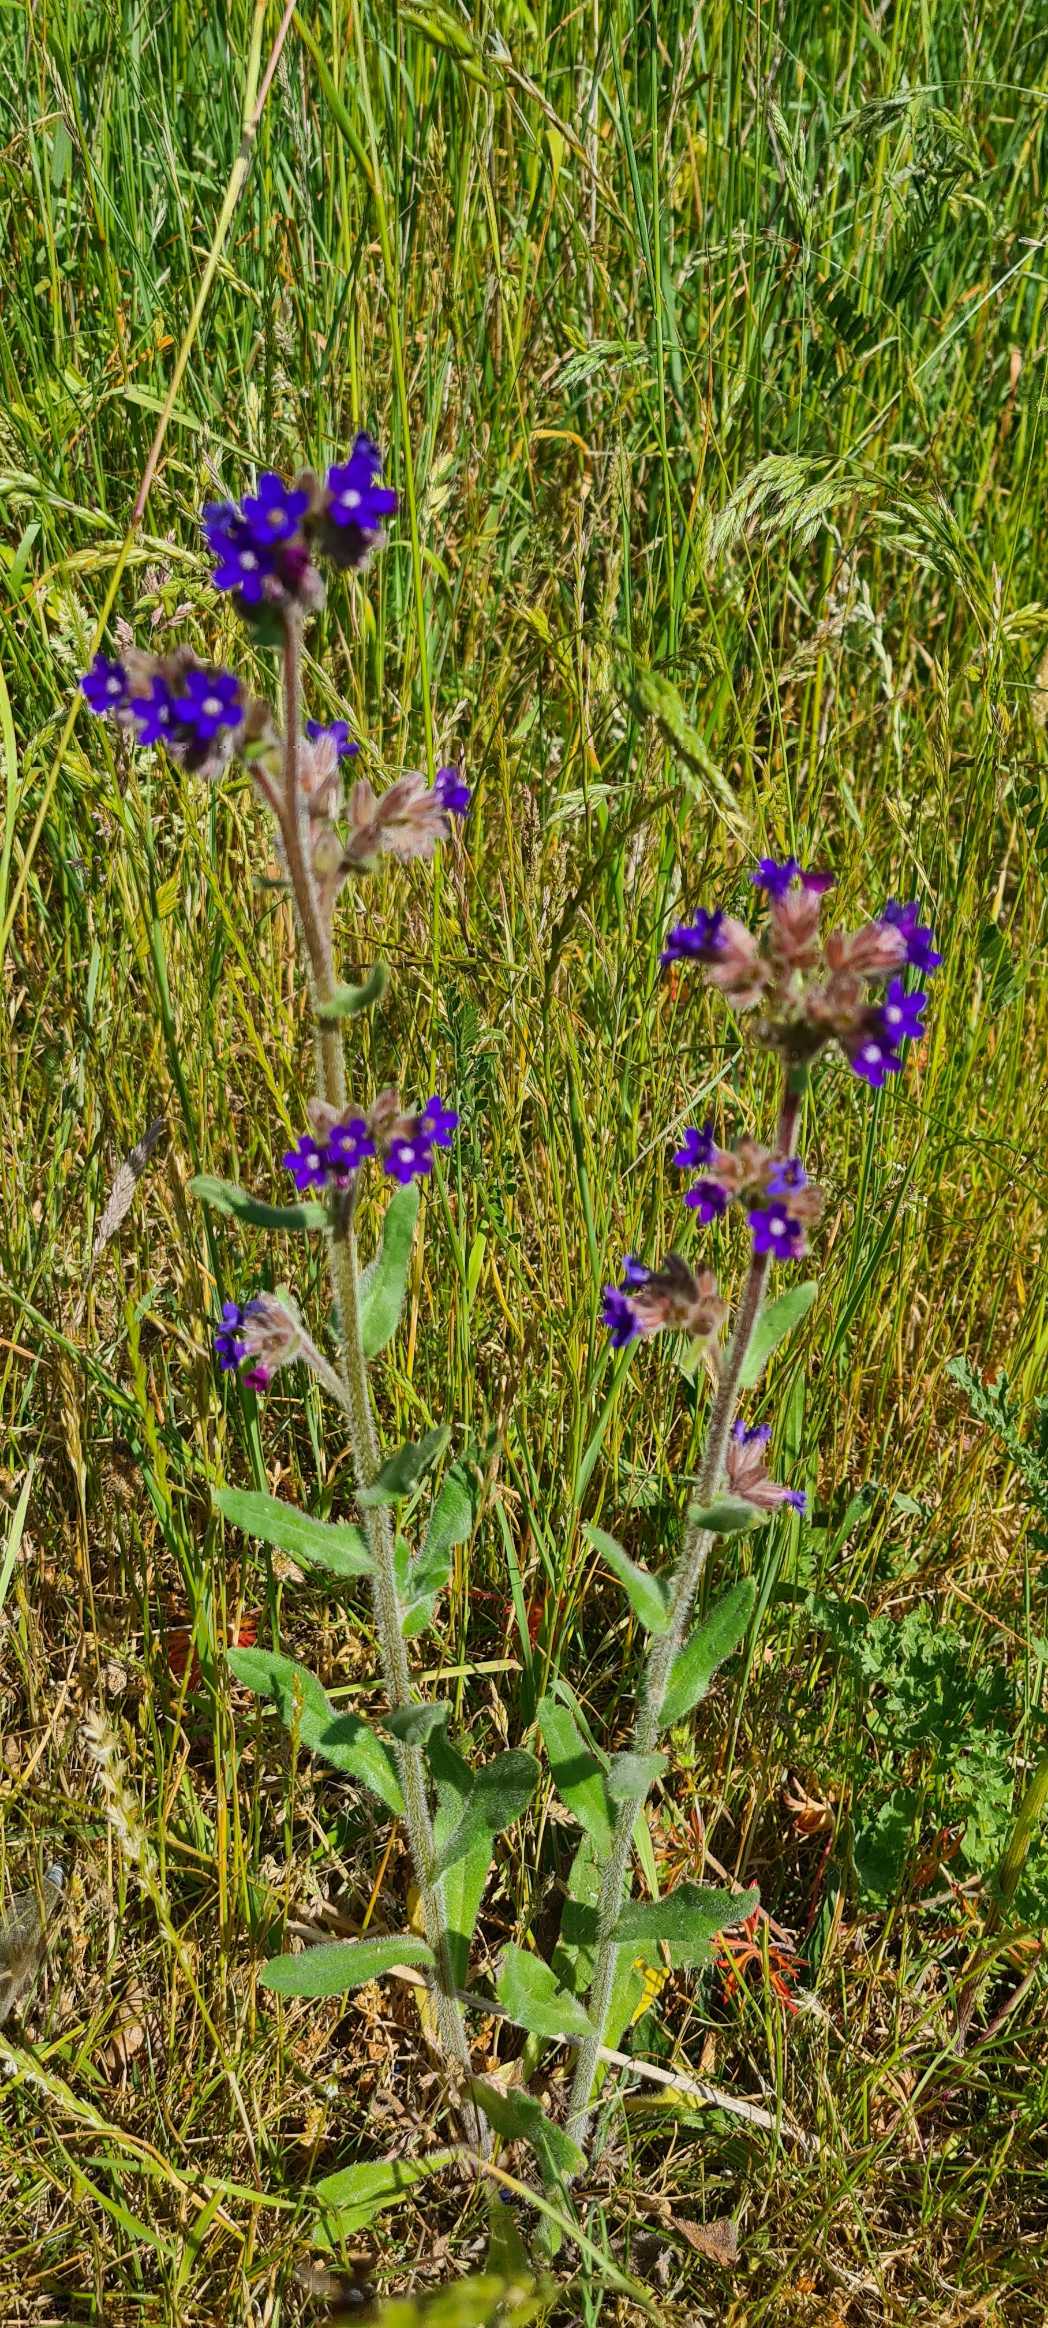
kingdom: Plantae
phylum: Tracheophyta
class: Magnoliopsida
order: Boraginales
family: Boraginaceae
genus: Anchusa
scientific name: Anchusa officinalis
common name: Læge-oksetunge
